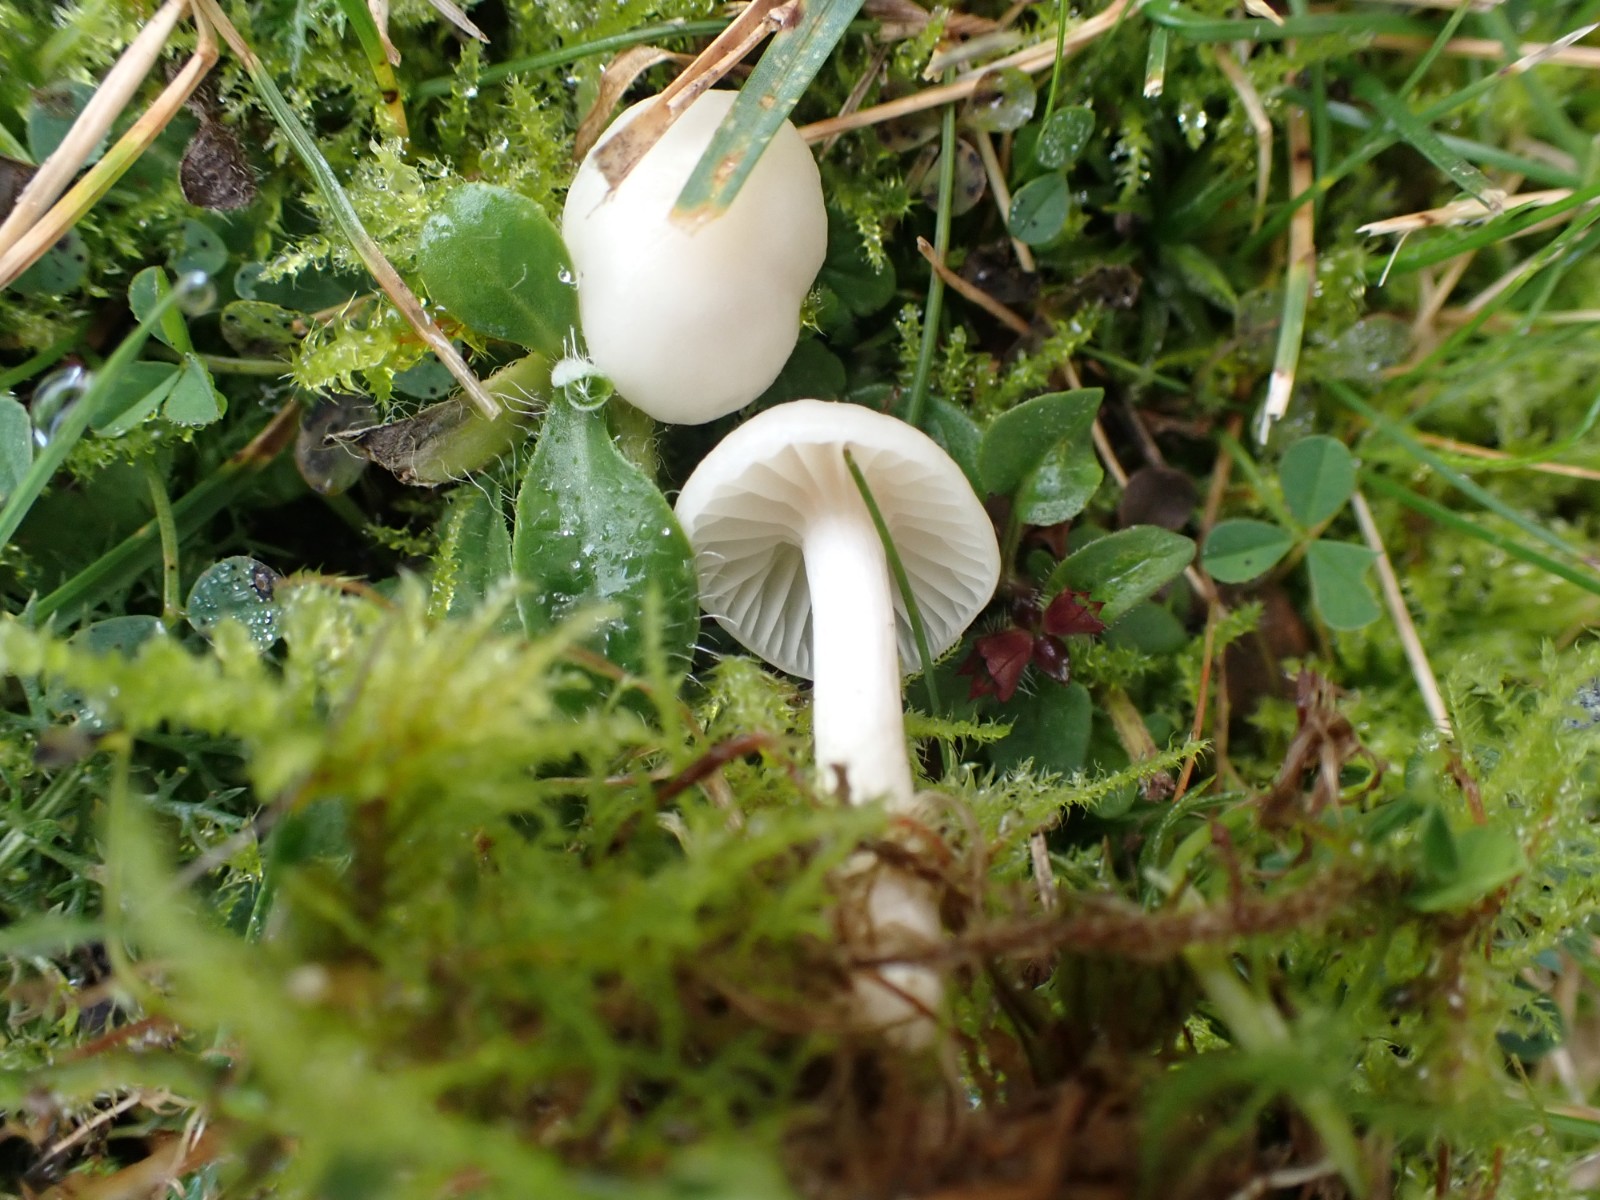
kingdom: Fungi
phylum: Basidiomycota
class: Agaricomycetes
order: Agaricales
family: Hygrophoraceae
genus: Cuphophyllus
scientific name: Cuphophyllus virgineus
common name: snehvid vokshat
